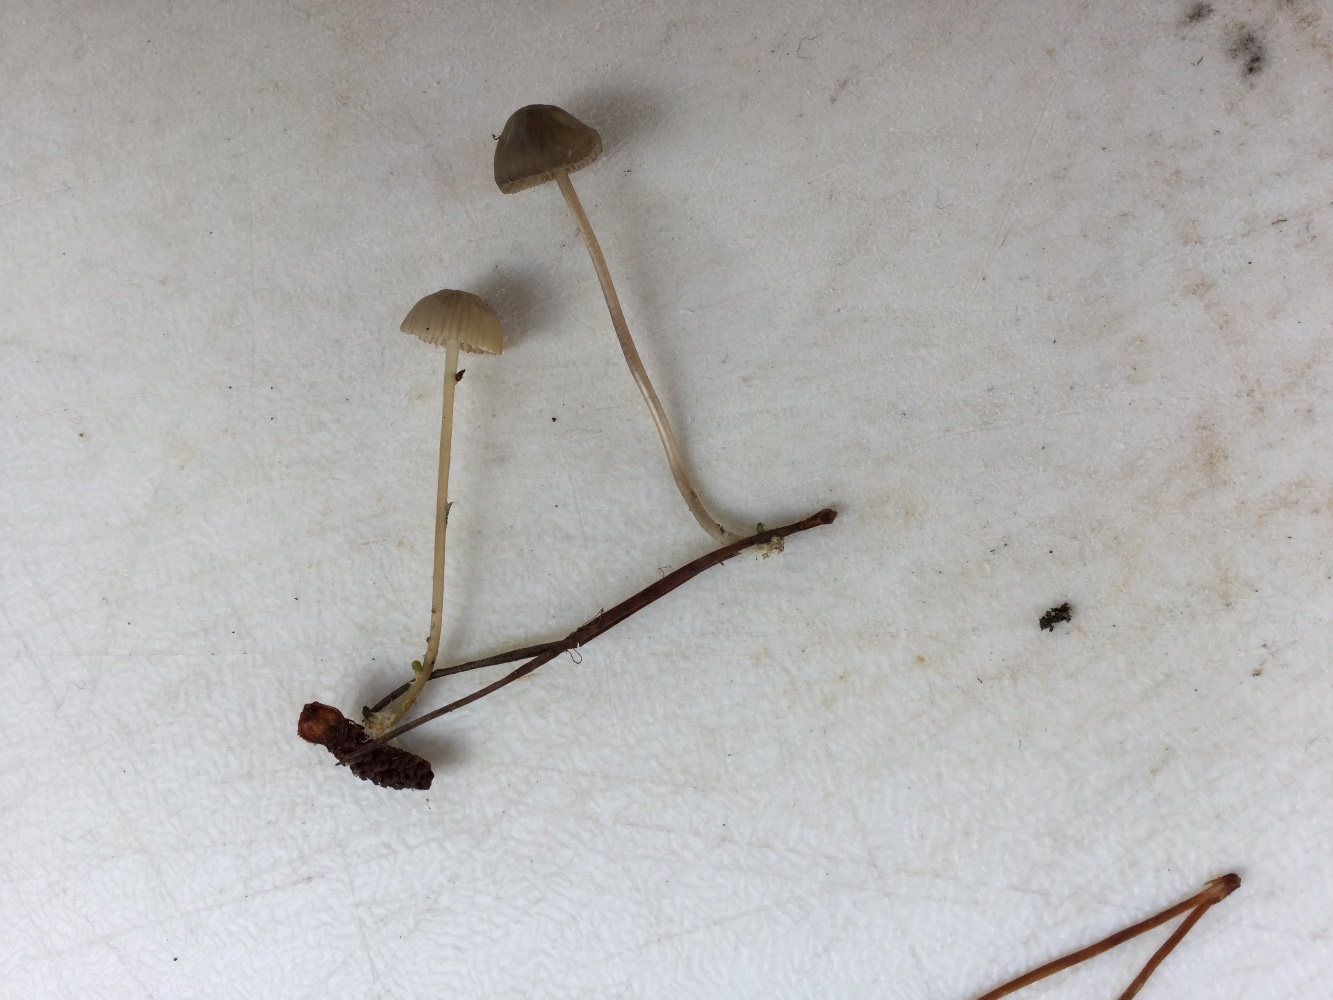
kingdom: Fungi
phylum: Basidiomycota
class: Agaricomycetes
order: Agaricales
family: Mycenaceae
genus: Mycena
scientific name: Mycena clavicularis
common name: fyrre-huesvamp
